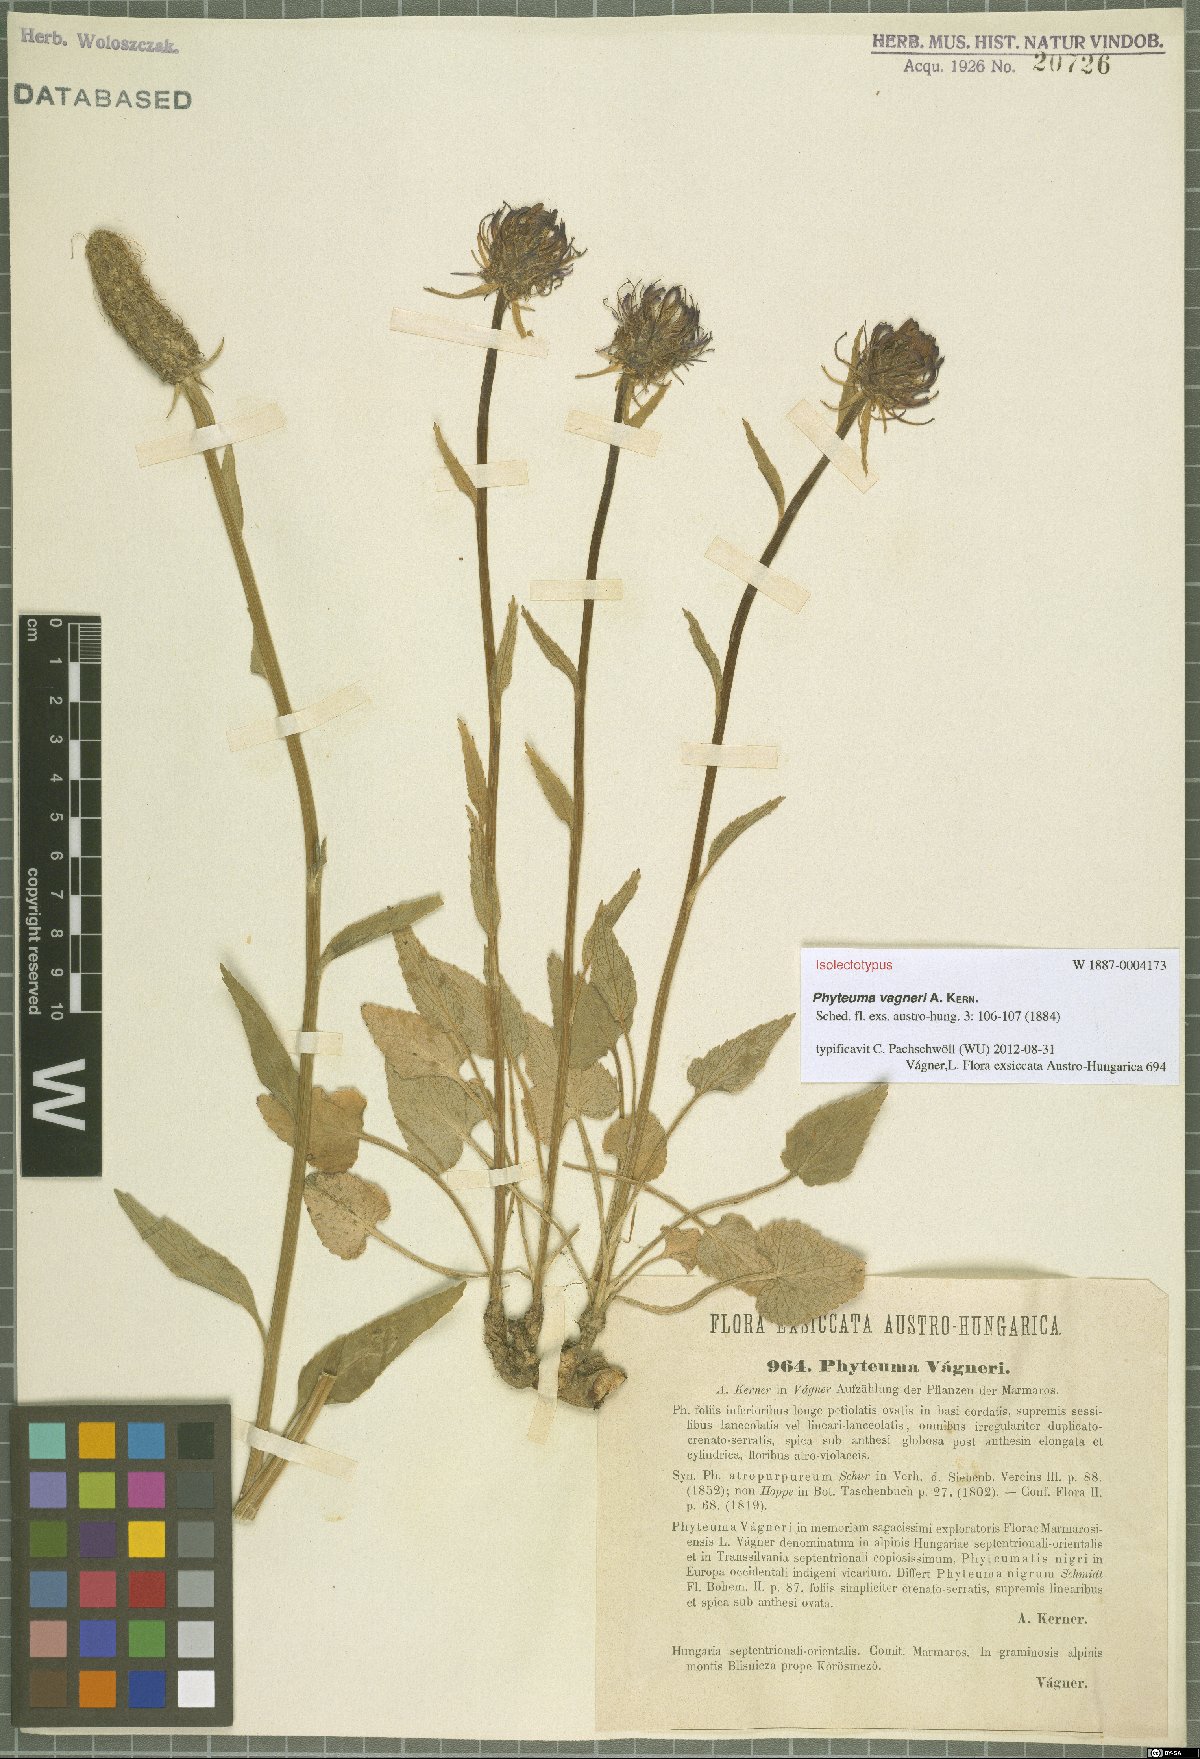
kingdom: Plantae
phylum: Tracheophyta
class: Magnoliopsida
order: Asterales
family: Campanulaceae
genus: Phyteuma
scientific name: Phyteuma vagneri
